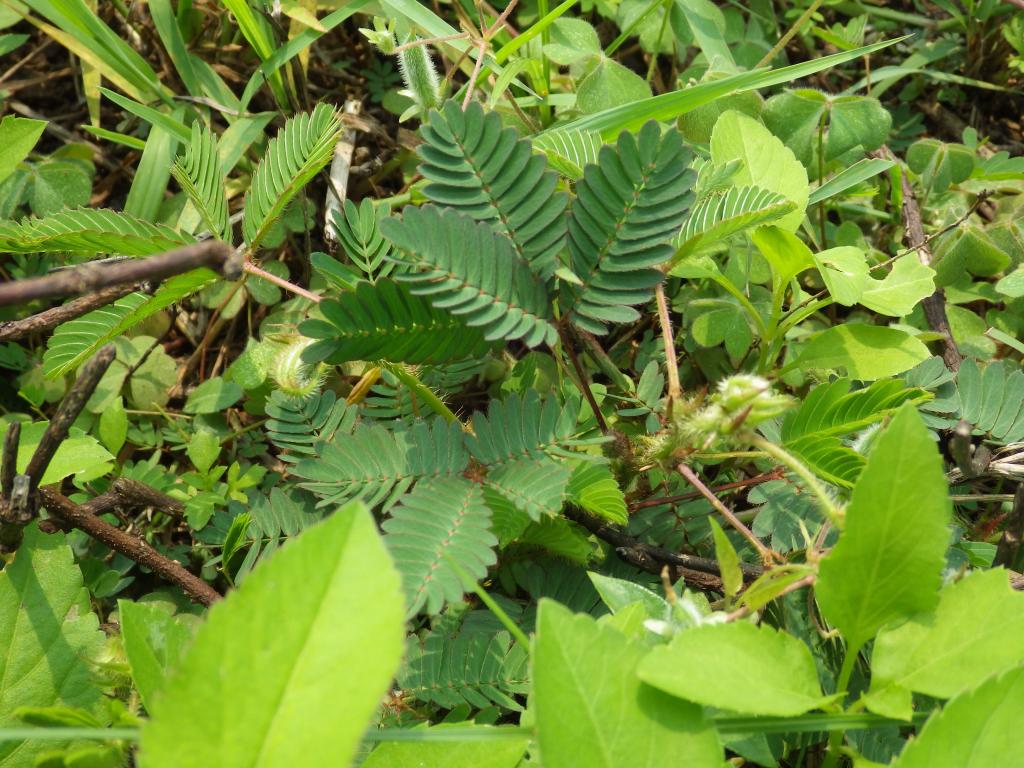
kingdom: Plantae
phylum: Tracheophyta
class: Magnoliopsida
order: Fabales
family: Fabaceae
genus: Mimosa
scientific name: Mimosa pudica
